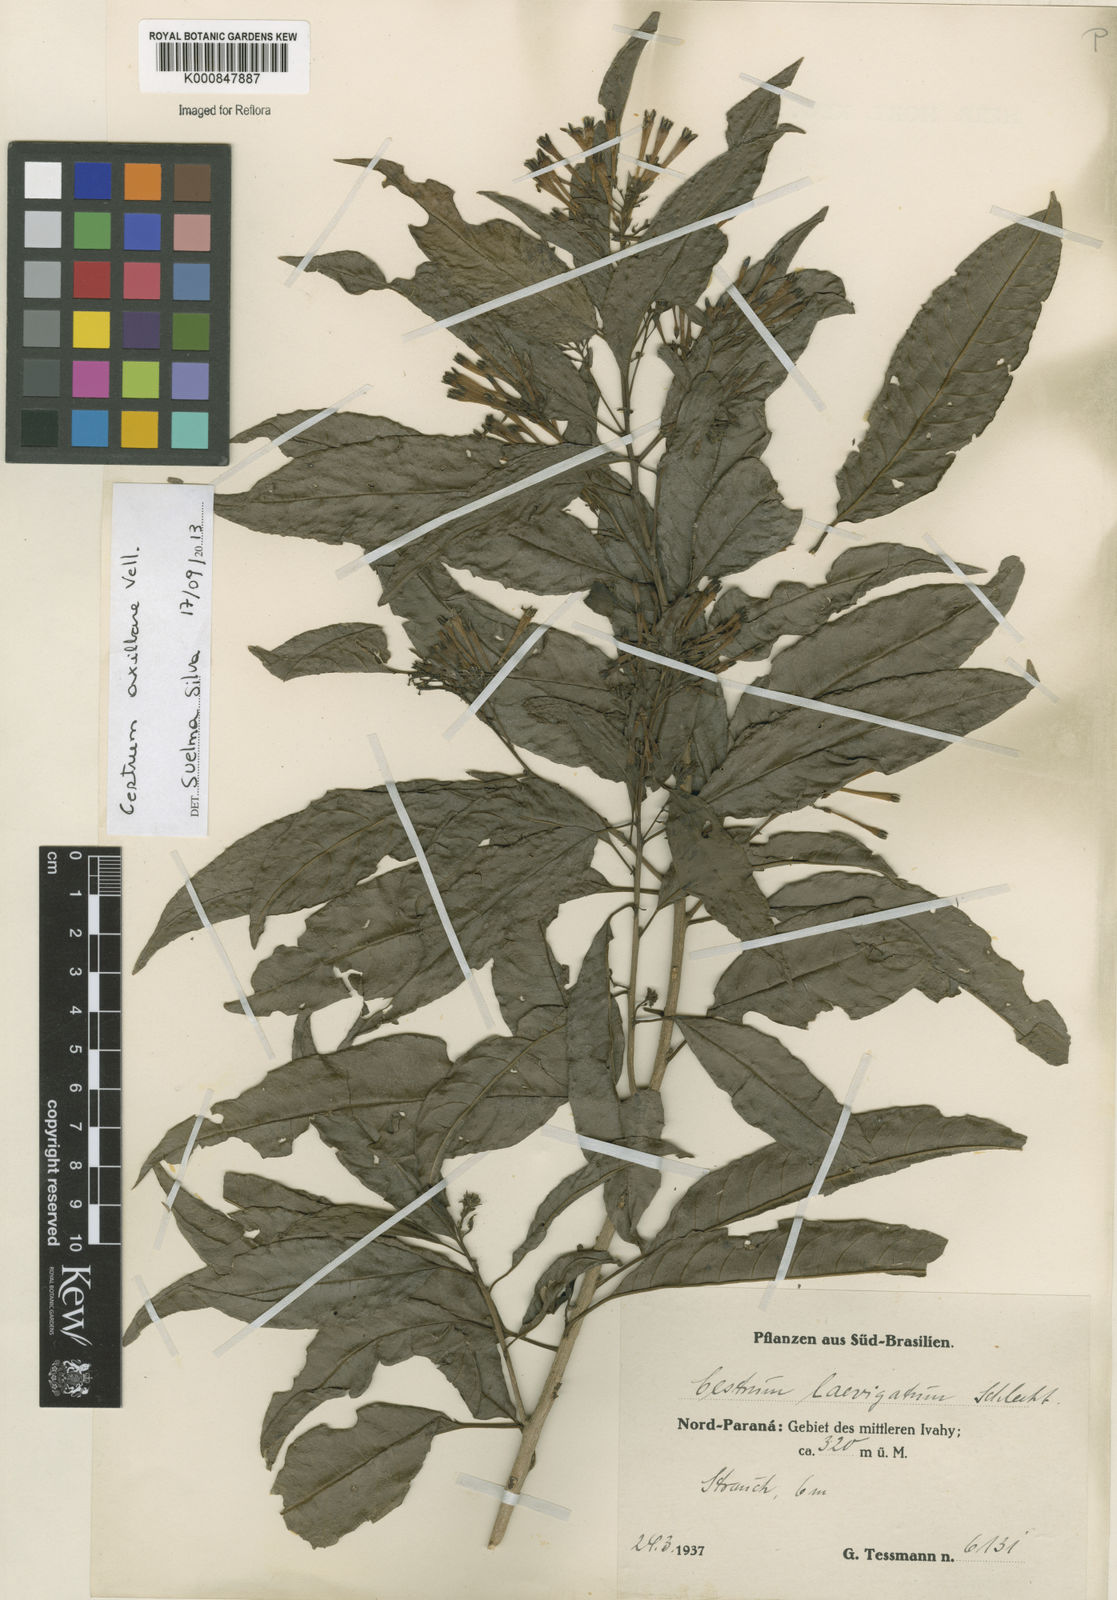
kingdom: Plantae
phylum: Tracheophyta
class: Magnoliopsida
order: Solanales
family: Solanaceae
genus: Cestrum
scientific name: Cestrum laevigatum
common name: Inkberry
